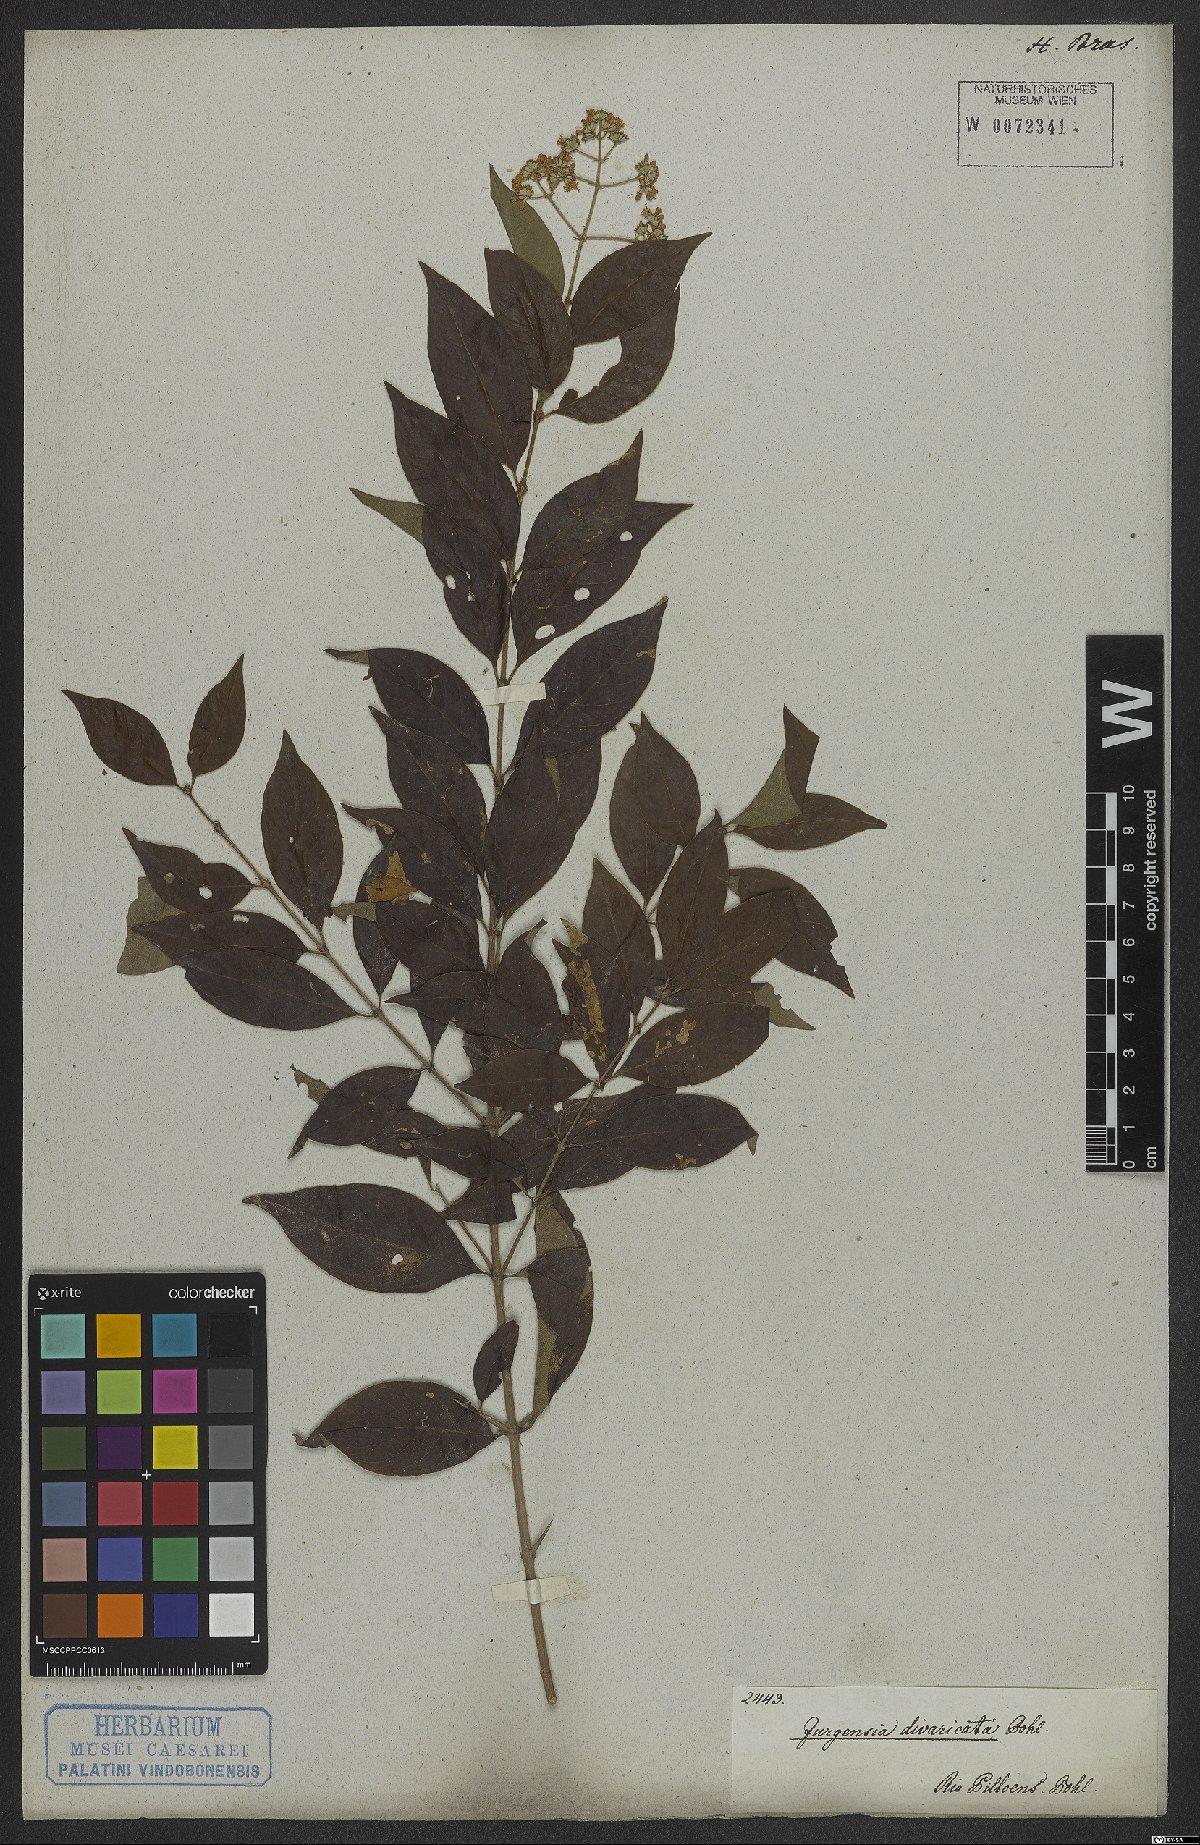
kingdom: Plantae
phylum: Tracheophyta
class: Magnoliopsida
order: Gentianales
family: Rubiaceae
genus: Machaonia
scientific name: Machaonia brasiliensis
